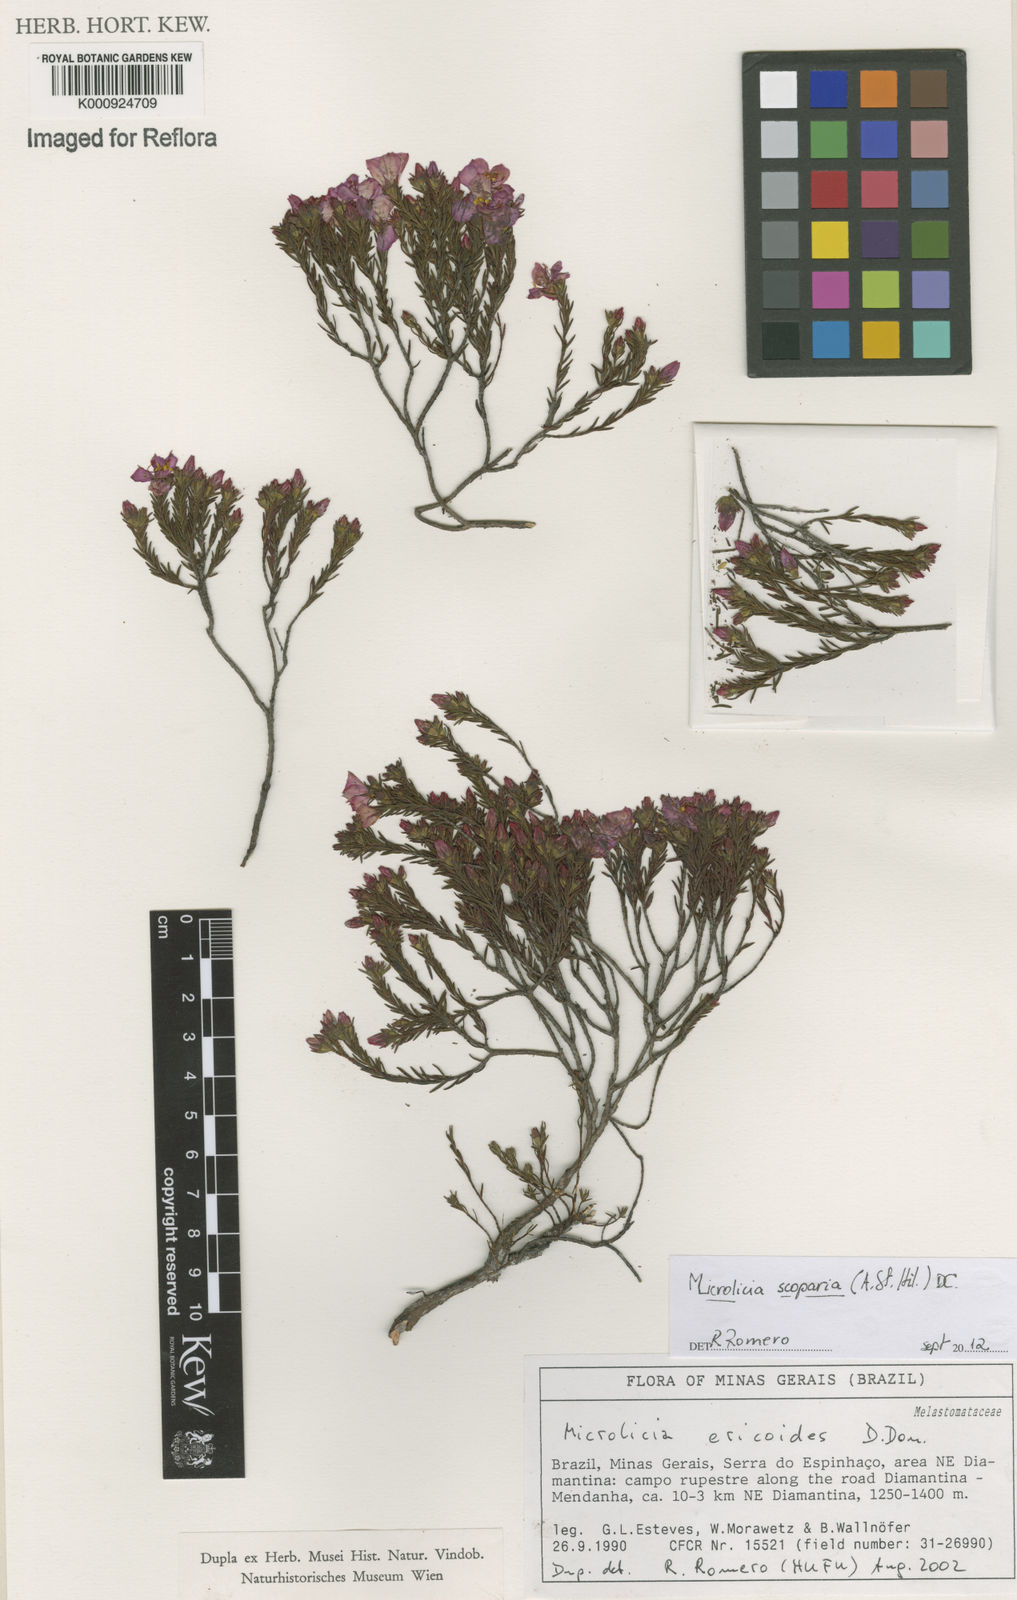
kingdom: Plantae
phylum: Tracheophyta
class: Magnoliopsida
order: Myrtales
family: Melastomataceae
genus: Microlicia
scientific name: Microlicia scoparia
